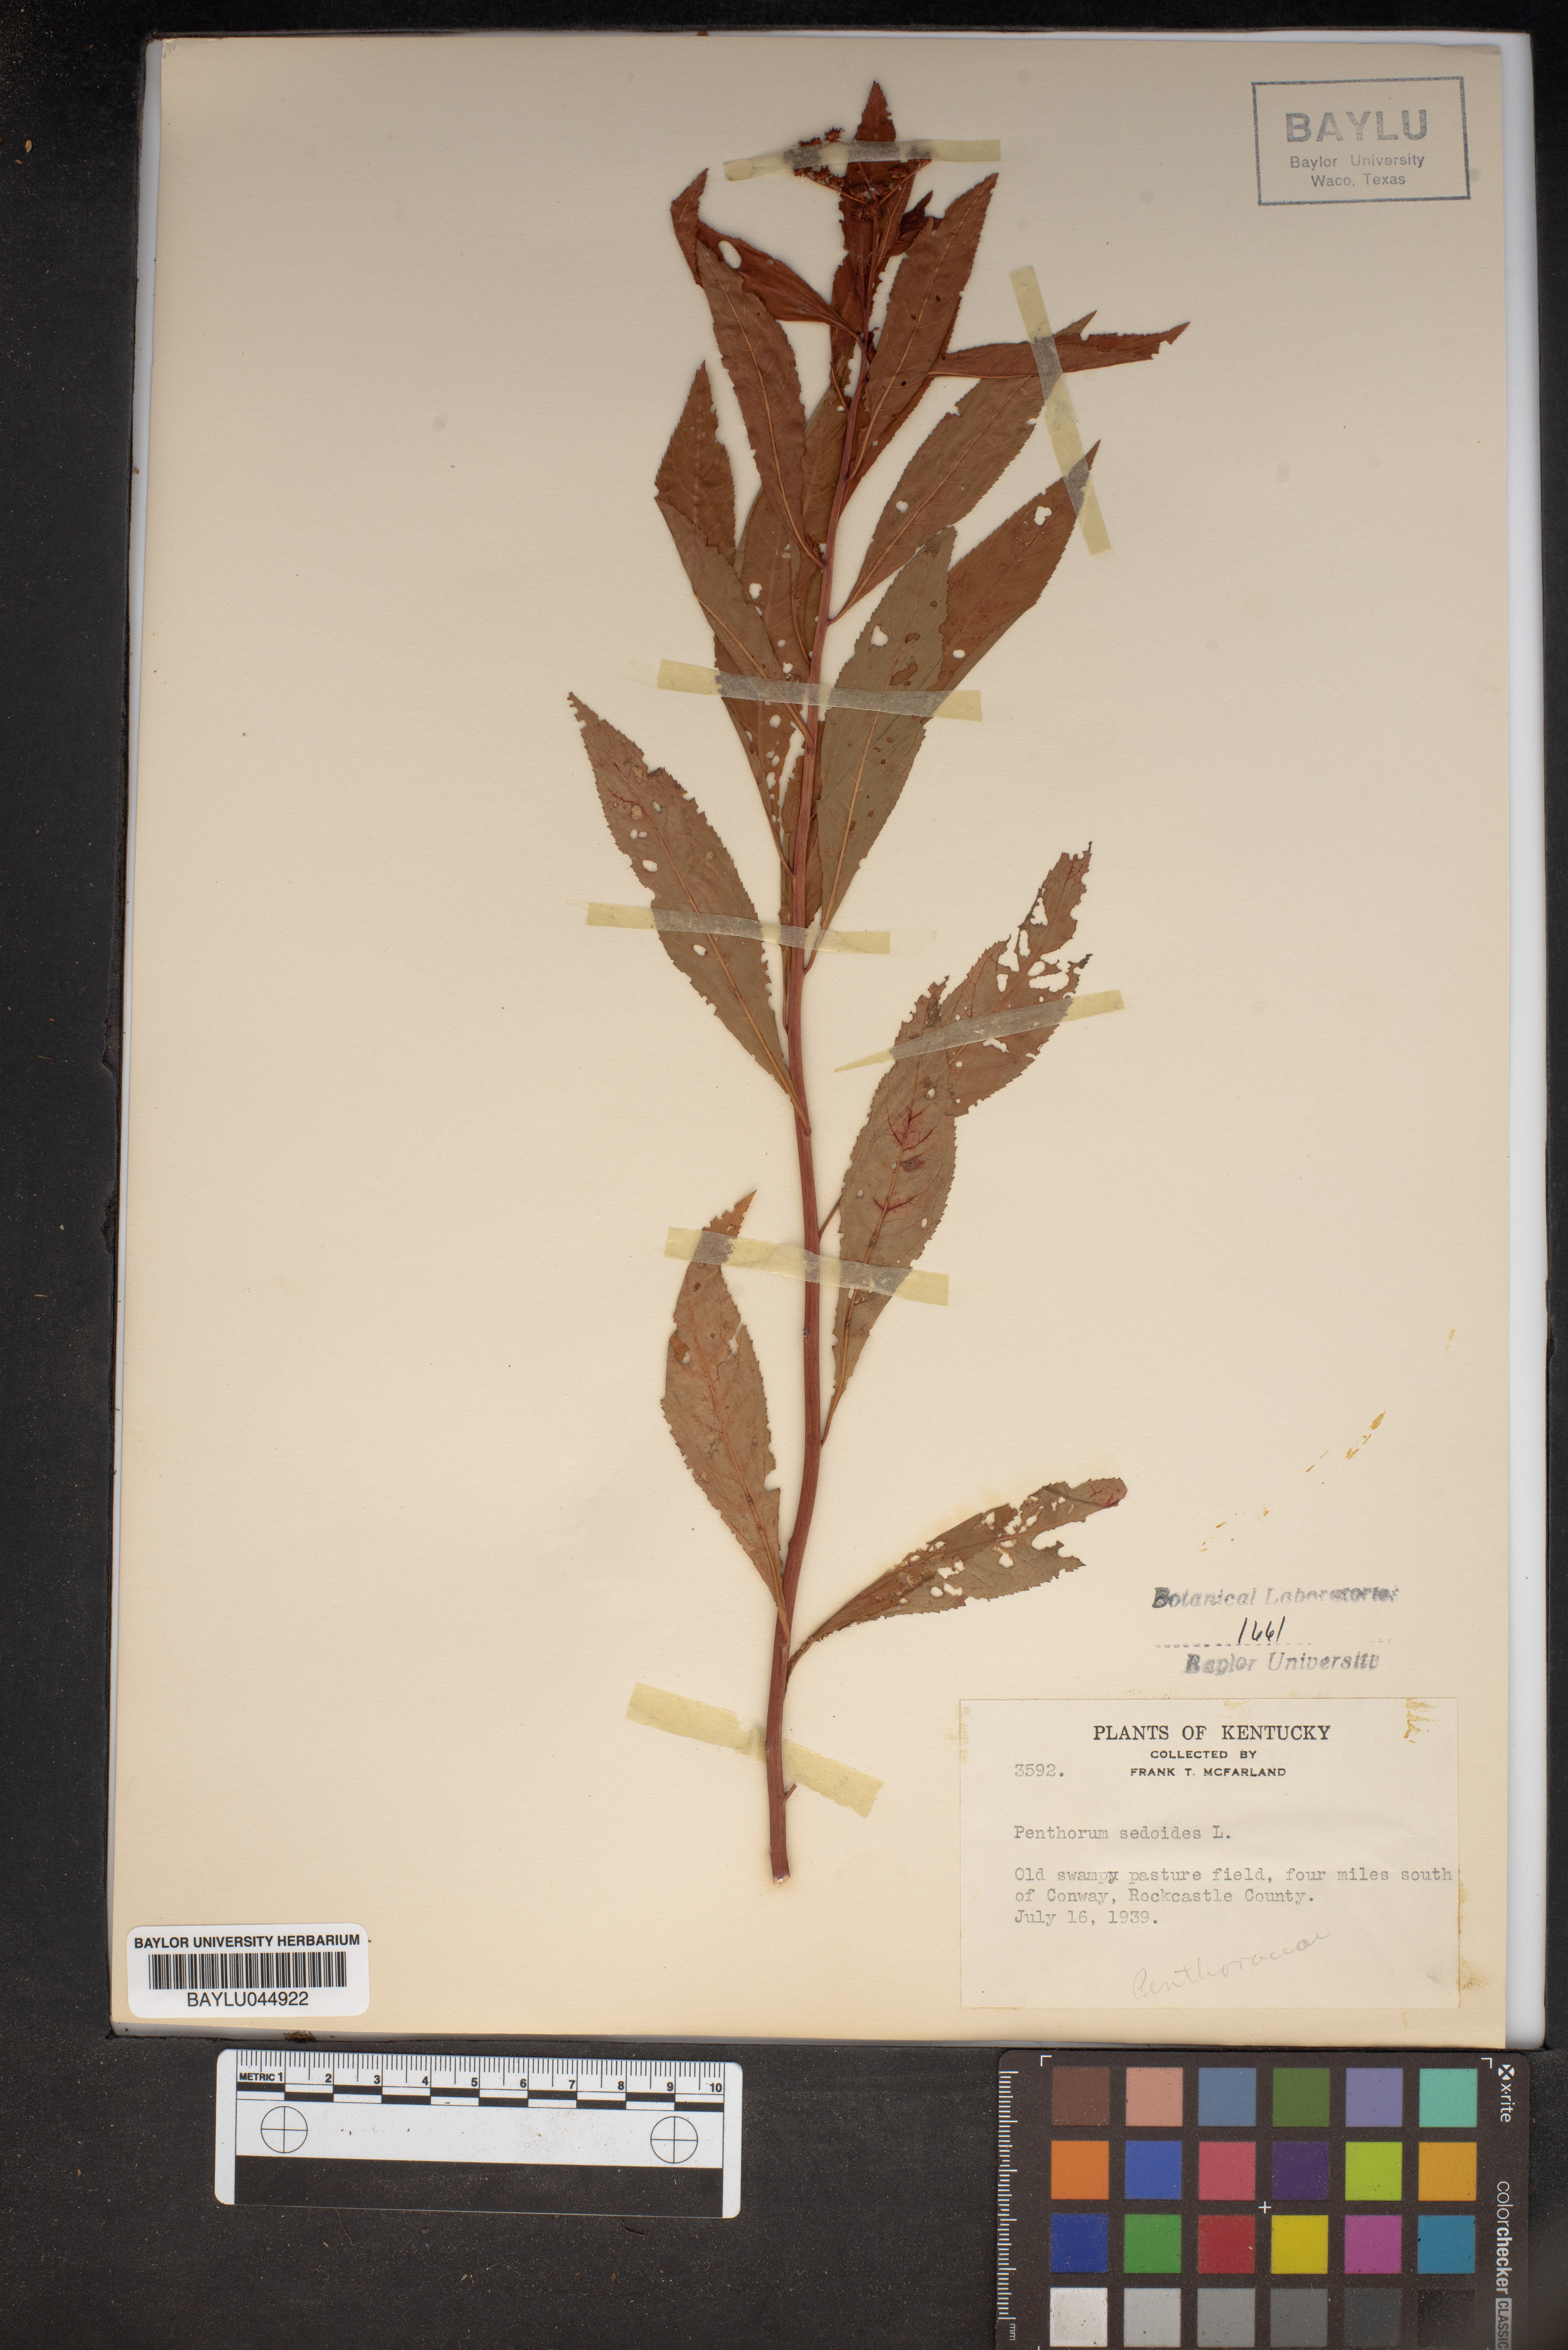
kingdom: Plantae
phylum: Tracheophyta
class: Magnoliopsida
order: Saxifragales
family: Penthoraceae
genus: Penthorum
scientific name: Penthorum sedoides
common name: Ditch stonecrop
